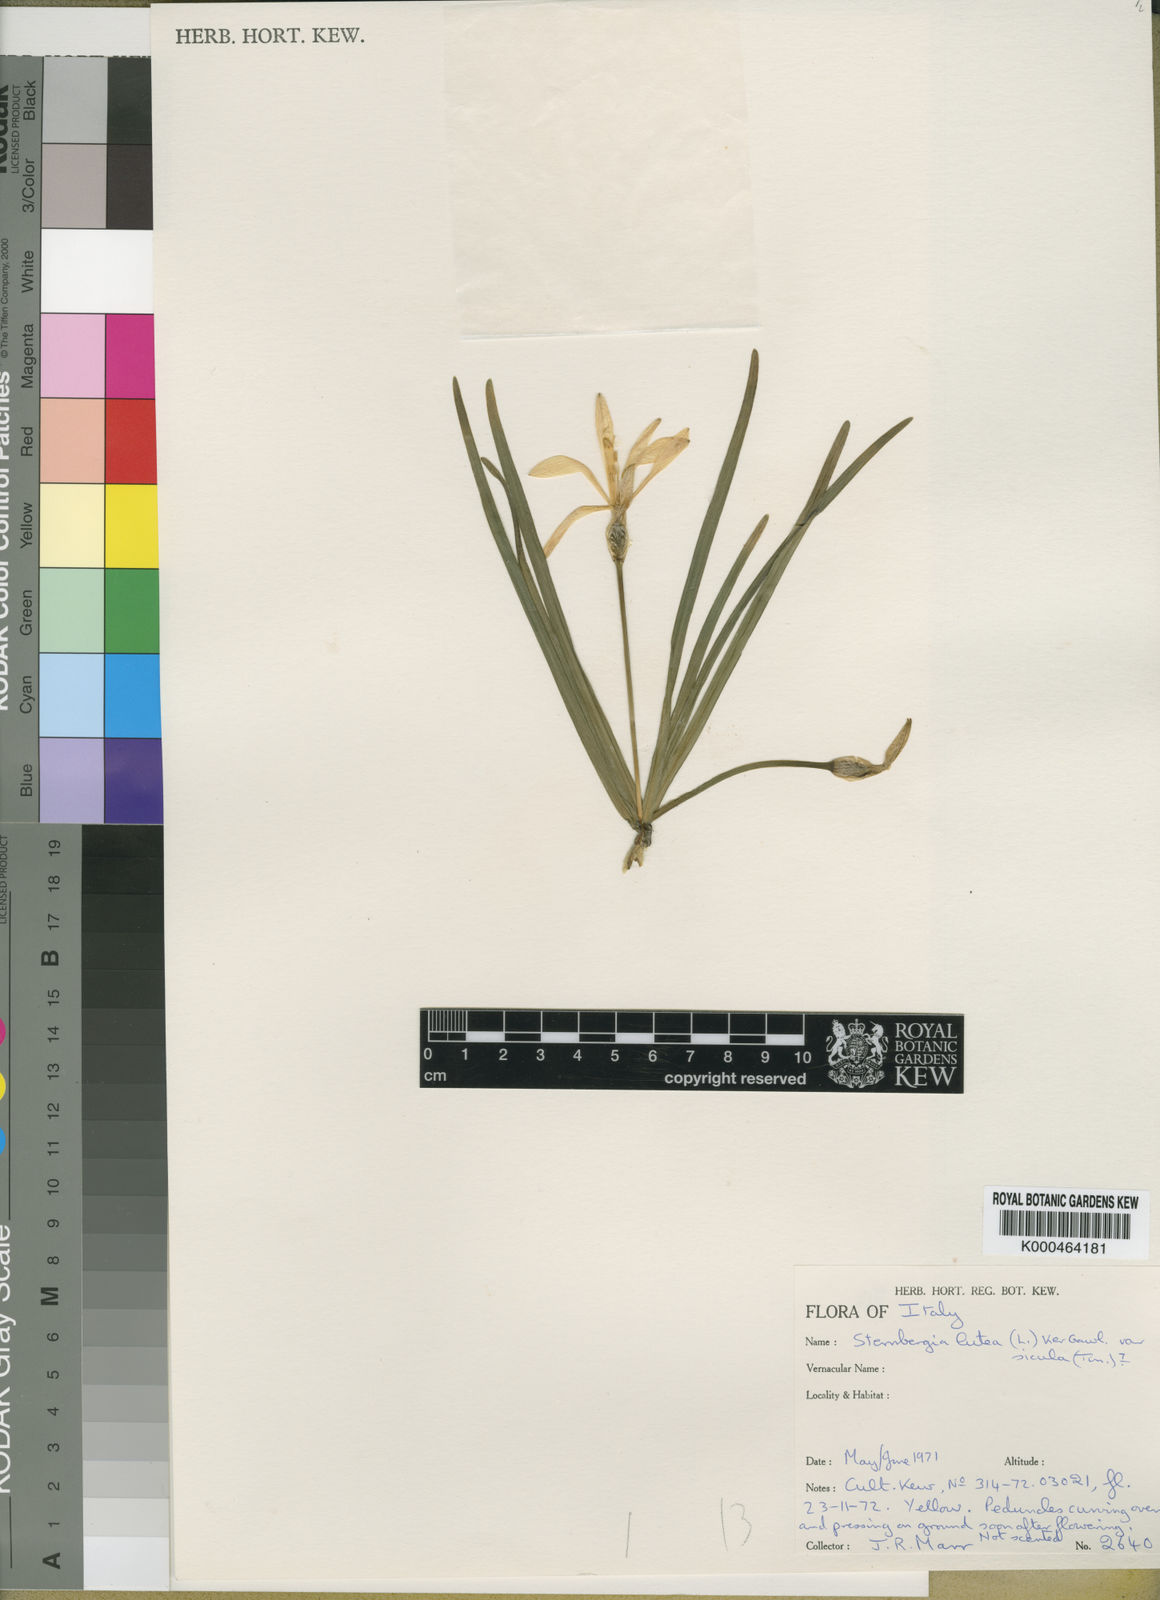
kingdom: Plantae
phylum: Tracheophyta
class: Liliopsida
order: Asparagales
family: Amaryllidaceae
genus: Sternbergia
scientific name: Sternbergia
